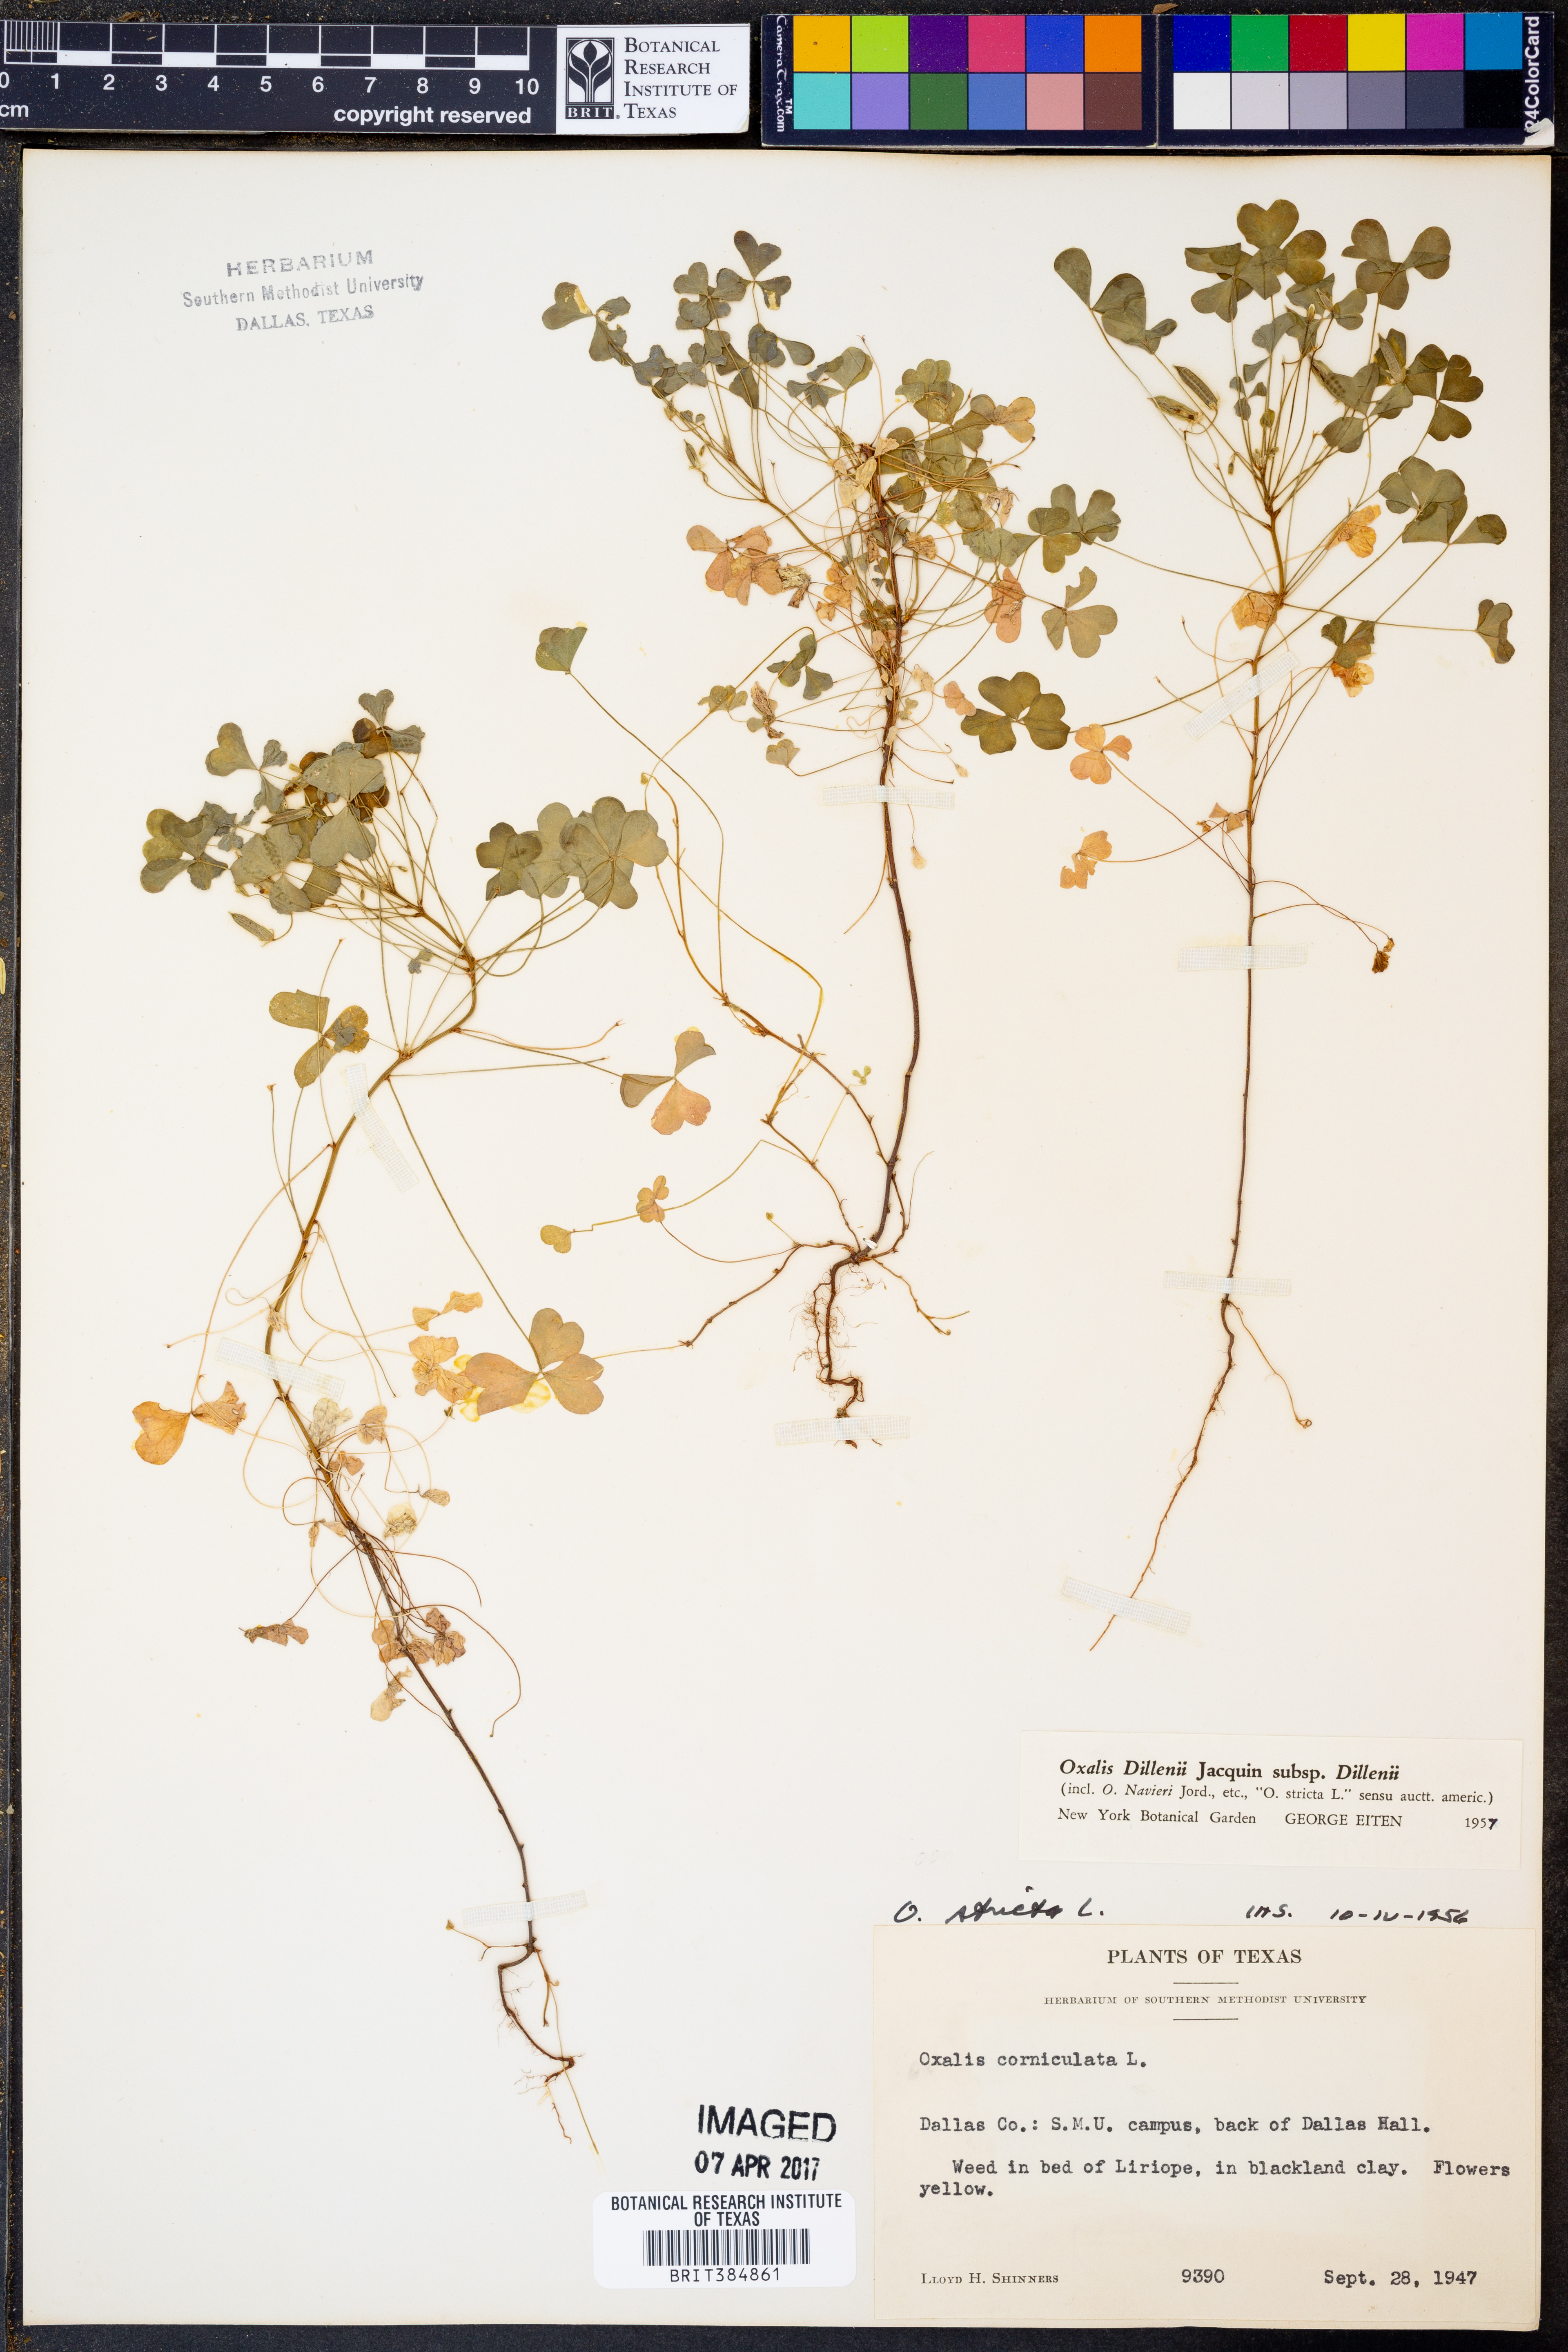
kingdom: Plantae
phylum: Tracheophyta
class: Magnoliopsida
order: Oxalidales
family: Oxalidaceae
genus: Oxalis
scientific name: Oxalis dillenii
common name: Sussex yellow-sorrel
